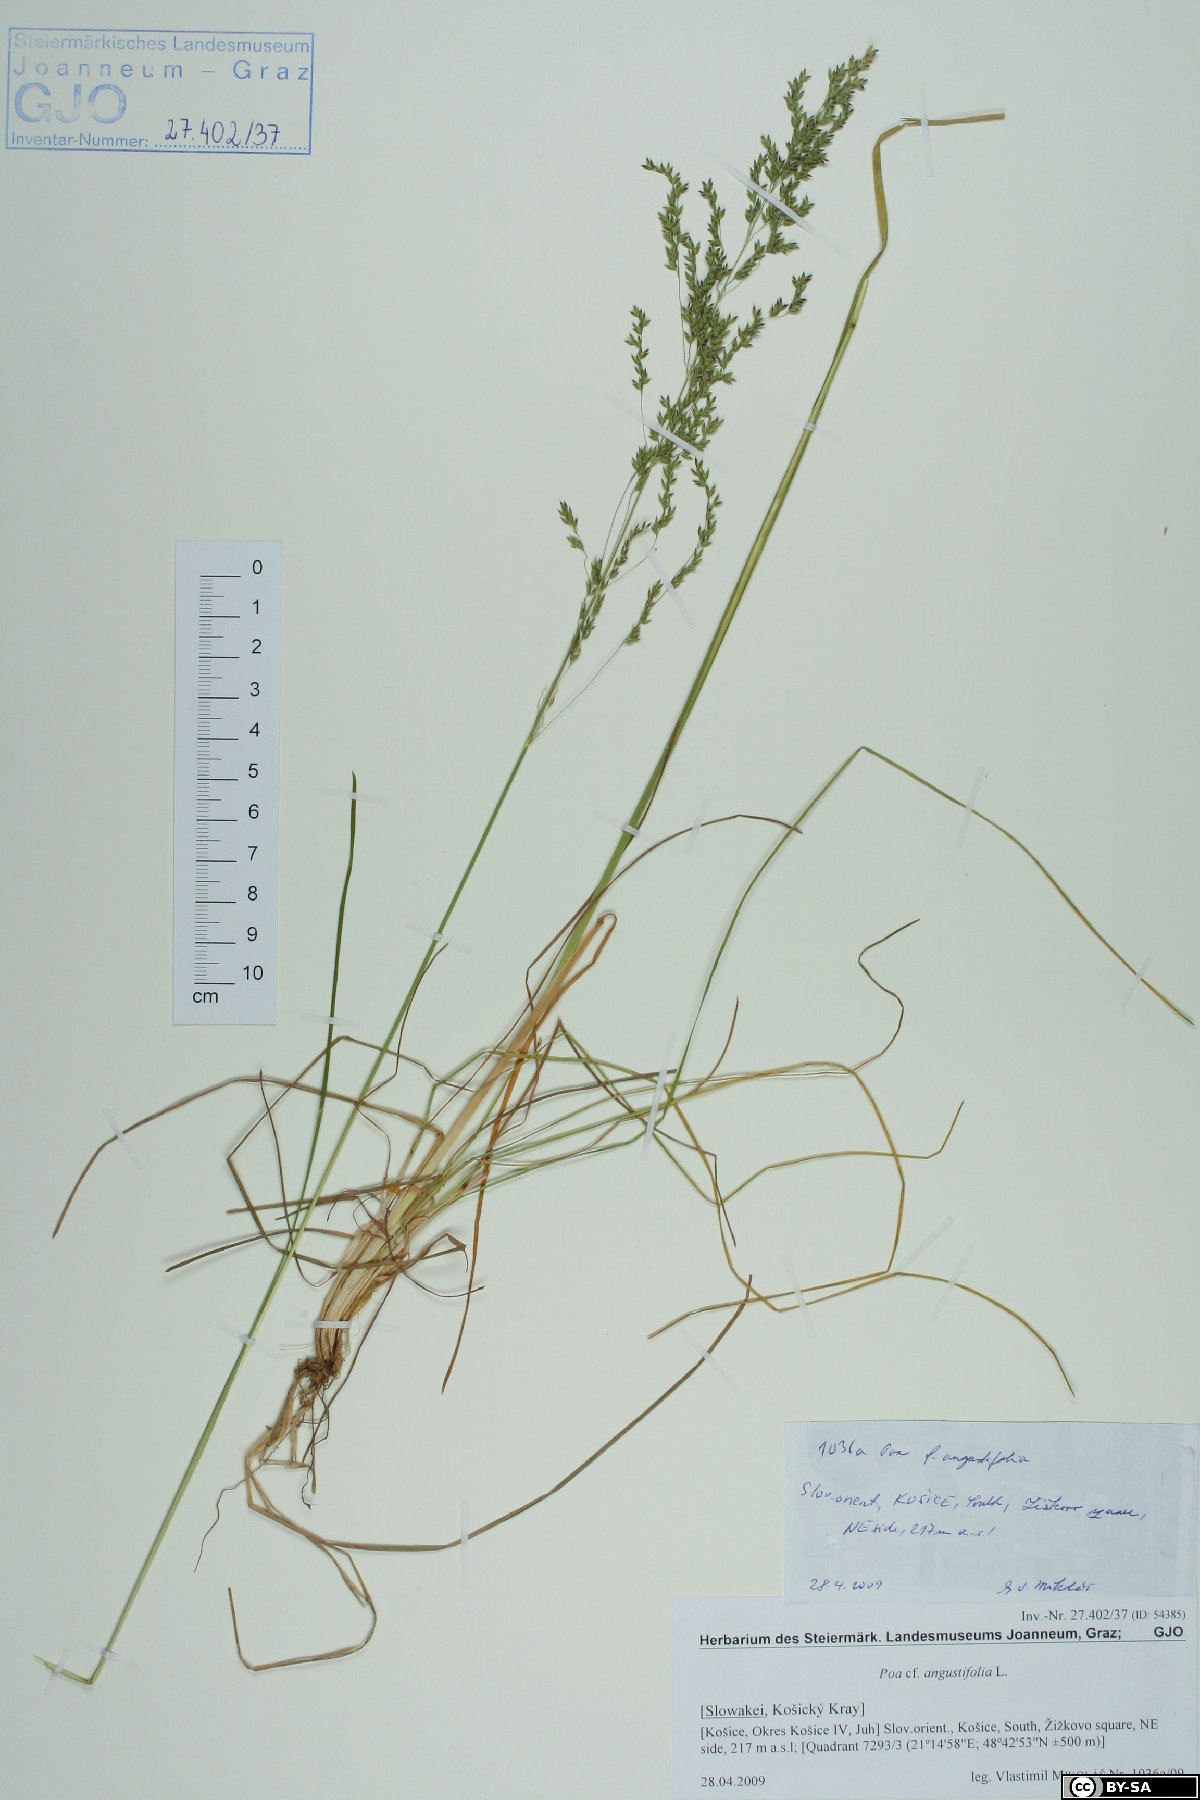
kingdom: Plantae
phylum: Tracheophyta
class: Liliopsida
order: Poales
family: Poaceae
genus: Poa
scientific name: Poa angustifolia
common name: Narrow-leaved meadow-grass
